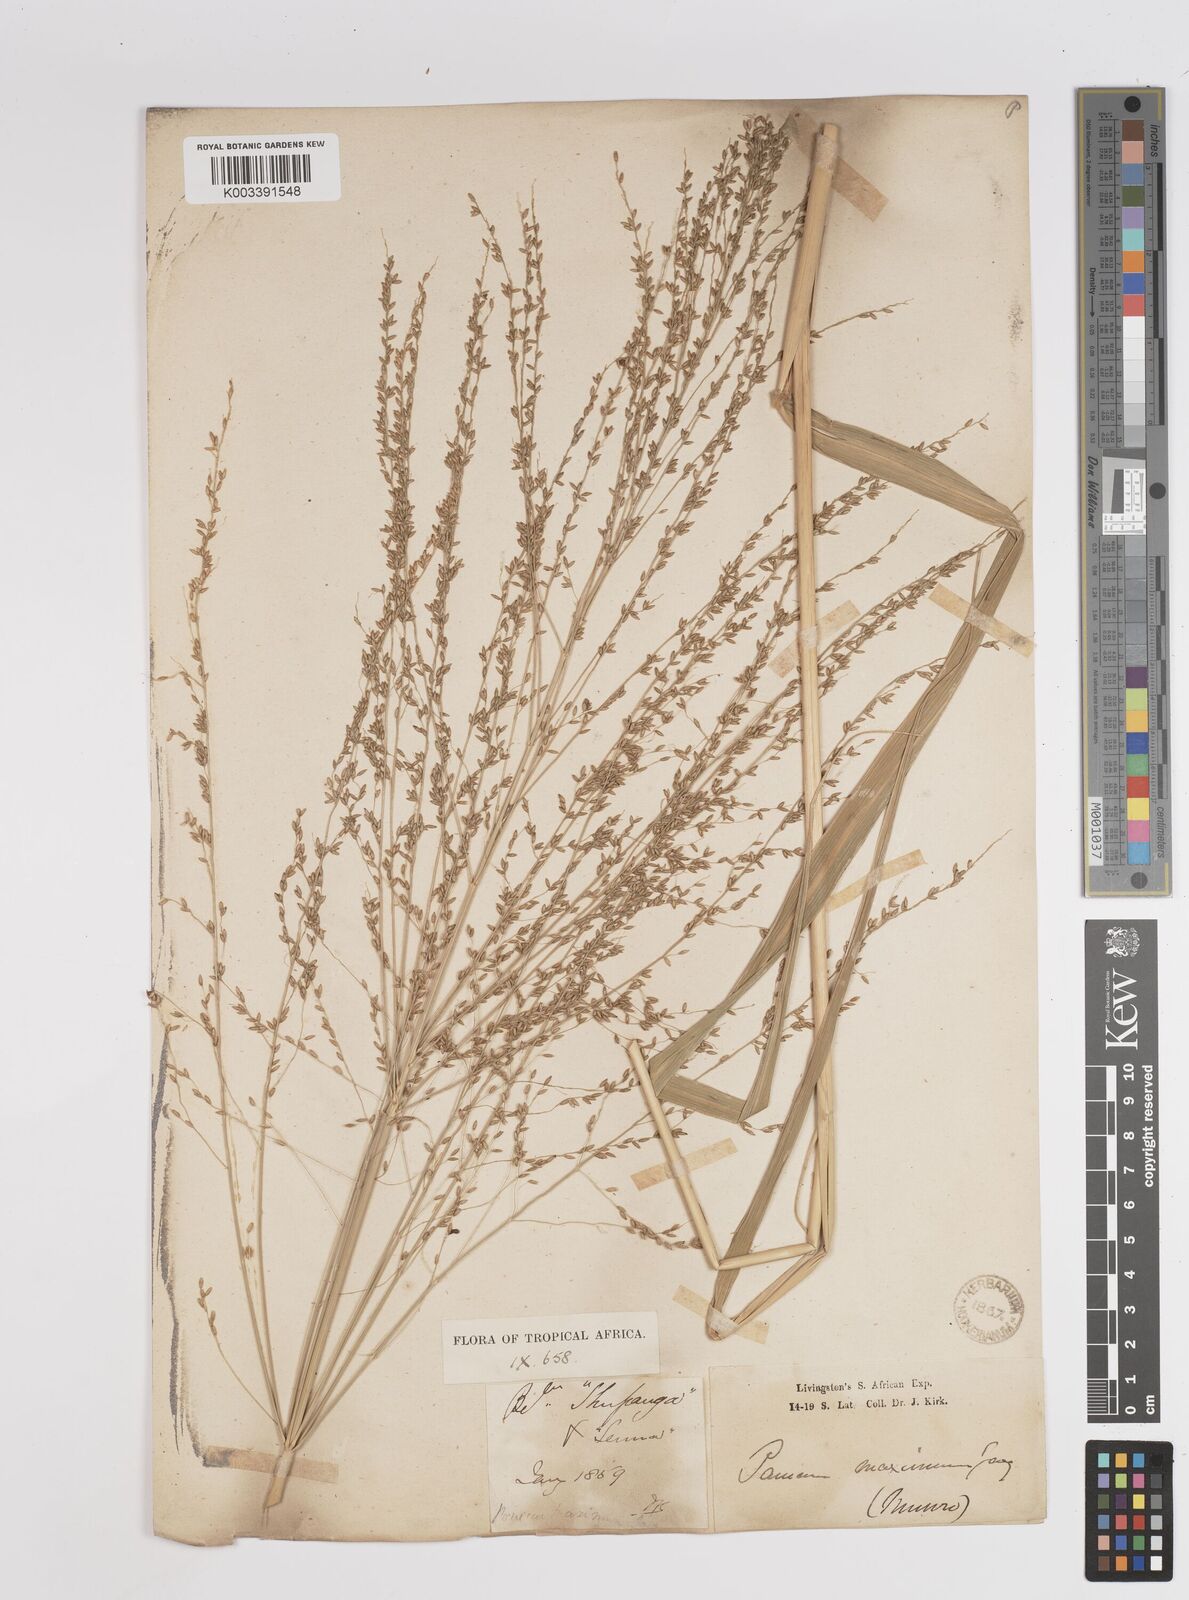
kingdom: Plantae
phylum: Tracheophyta
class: Liliopsida
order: Poales
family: Poaceae
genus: Megathyrsus
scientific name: Megathyrsus maximus
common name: Guineagrass
